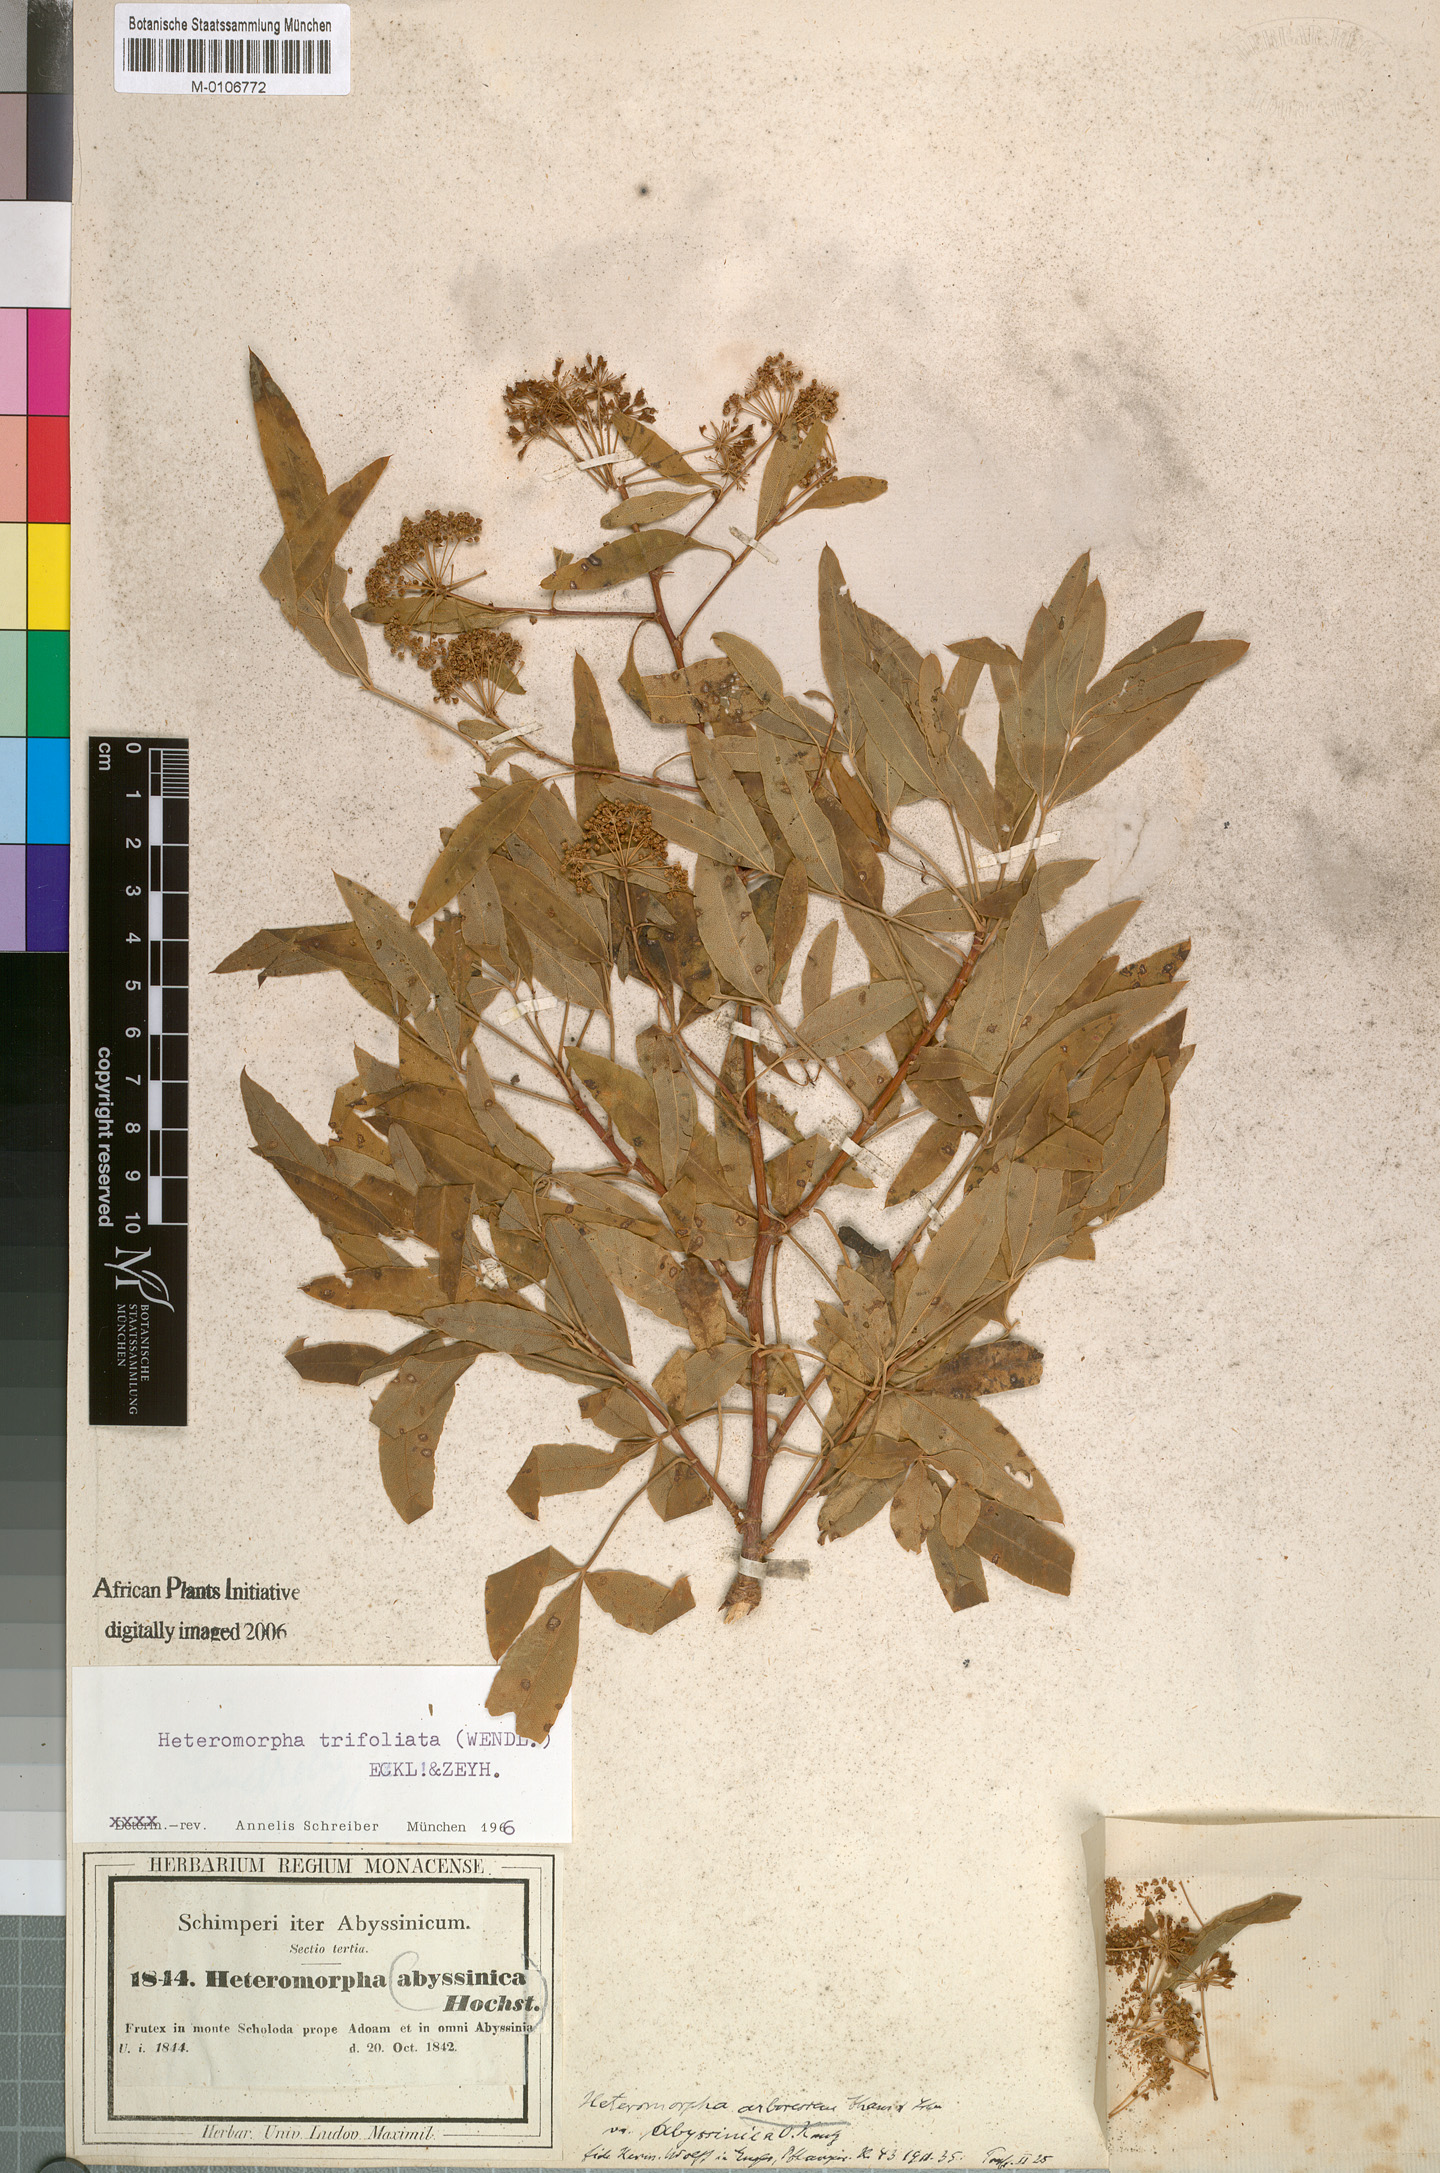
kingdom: Plantae
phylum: Tracheophyta
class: Magnoliopsida
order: Apiales
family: Apiaceae
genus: Heteromorpha
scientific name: Heteromorpha arborescens
